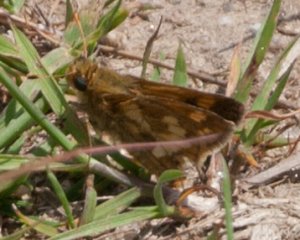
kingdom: Animalia
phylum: Arthropoda
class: Insecta
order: Lepidoptera
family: Hesperiidae
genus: Polites
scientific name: Polites coras
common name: Peck's Skipper
